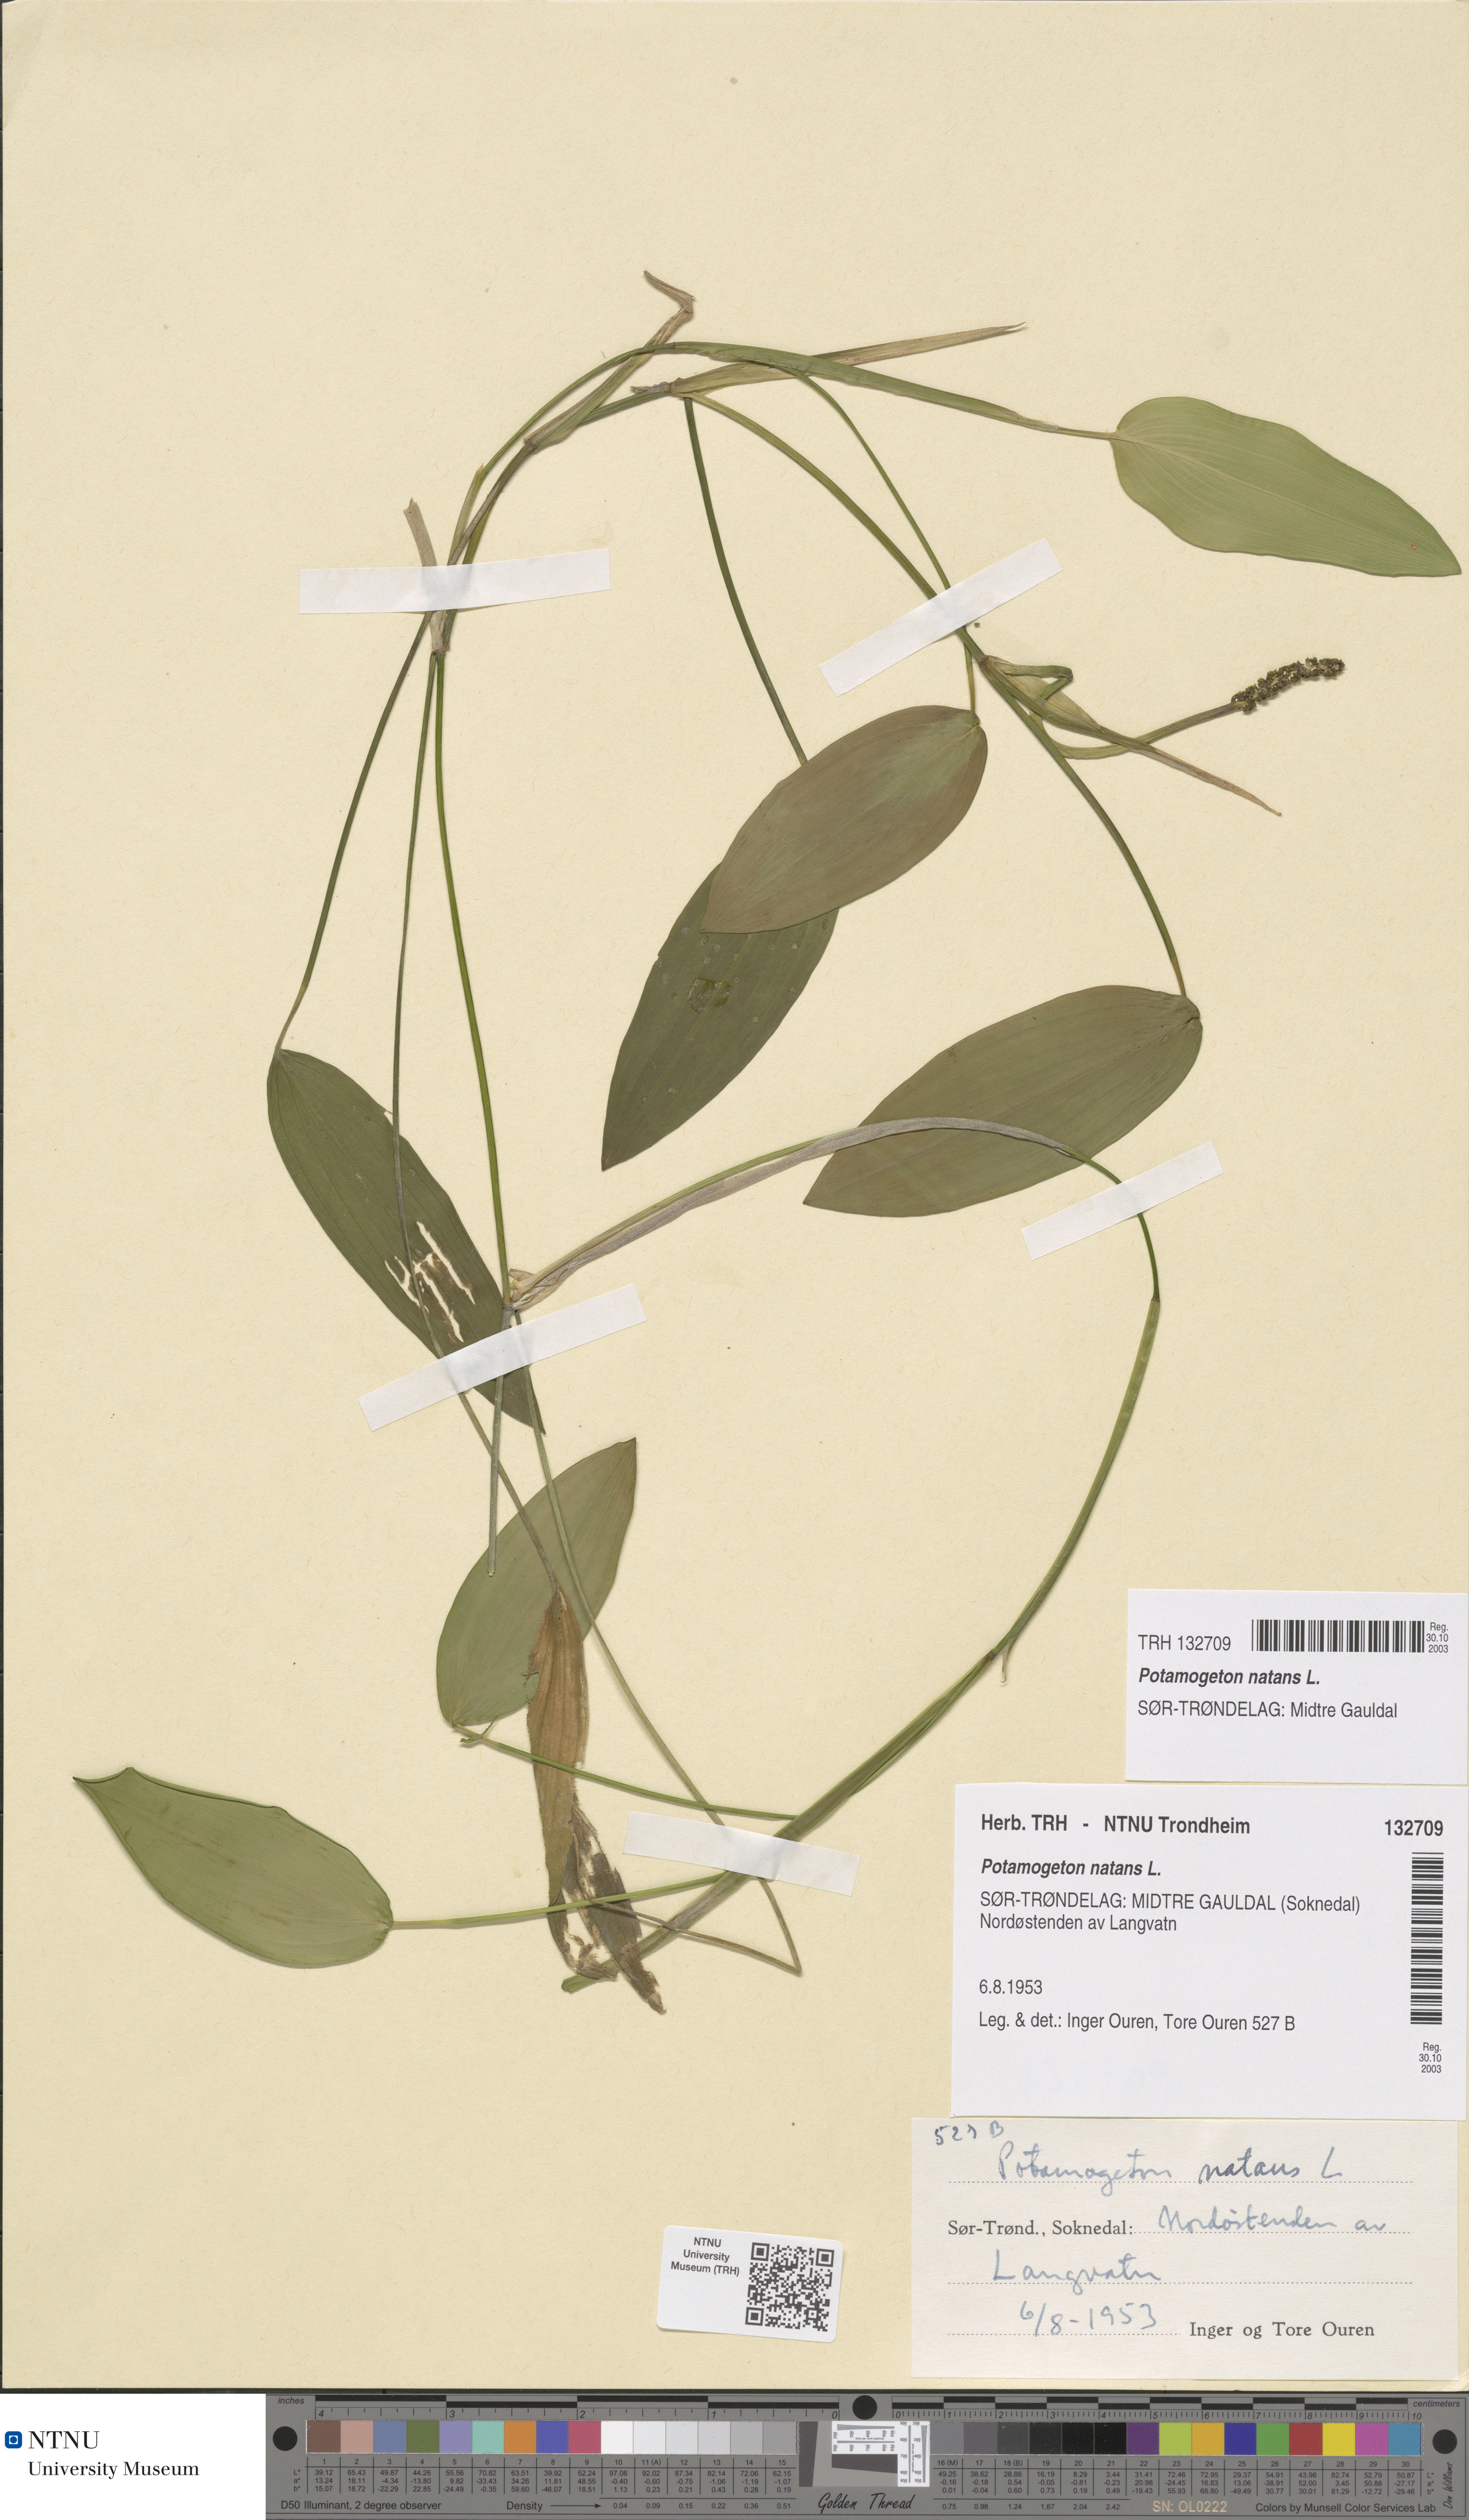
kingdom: Plantae
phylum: Tracheophyta
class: Liliopsida
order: Alismatales
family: Potamogetonaceae
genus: Potamogeton
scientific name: Potamogeton natans
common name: Broad-leaved pondweed
